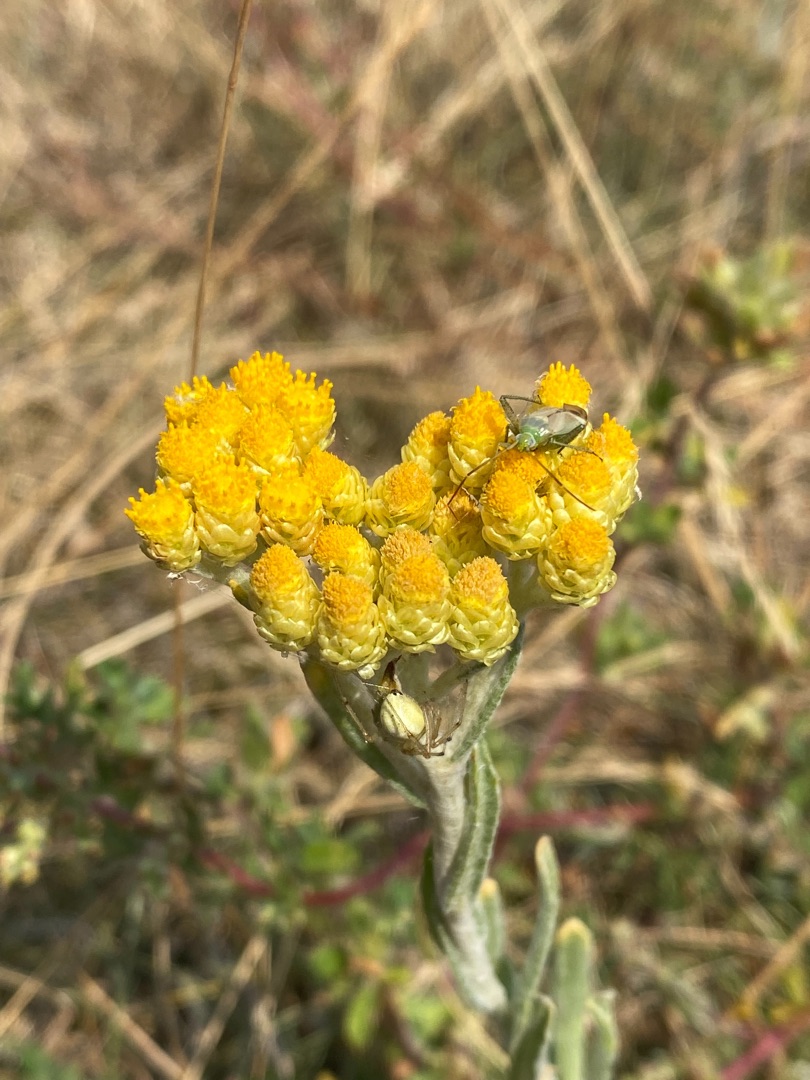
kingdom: Plantae
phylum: Tracheophyta
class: Magnoliopsida
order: Asterales
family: Asteraceae
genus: Helichrysum
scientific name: Helichrysum arenarium
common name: Gul evighedsblomst
